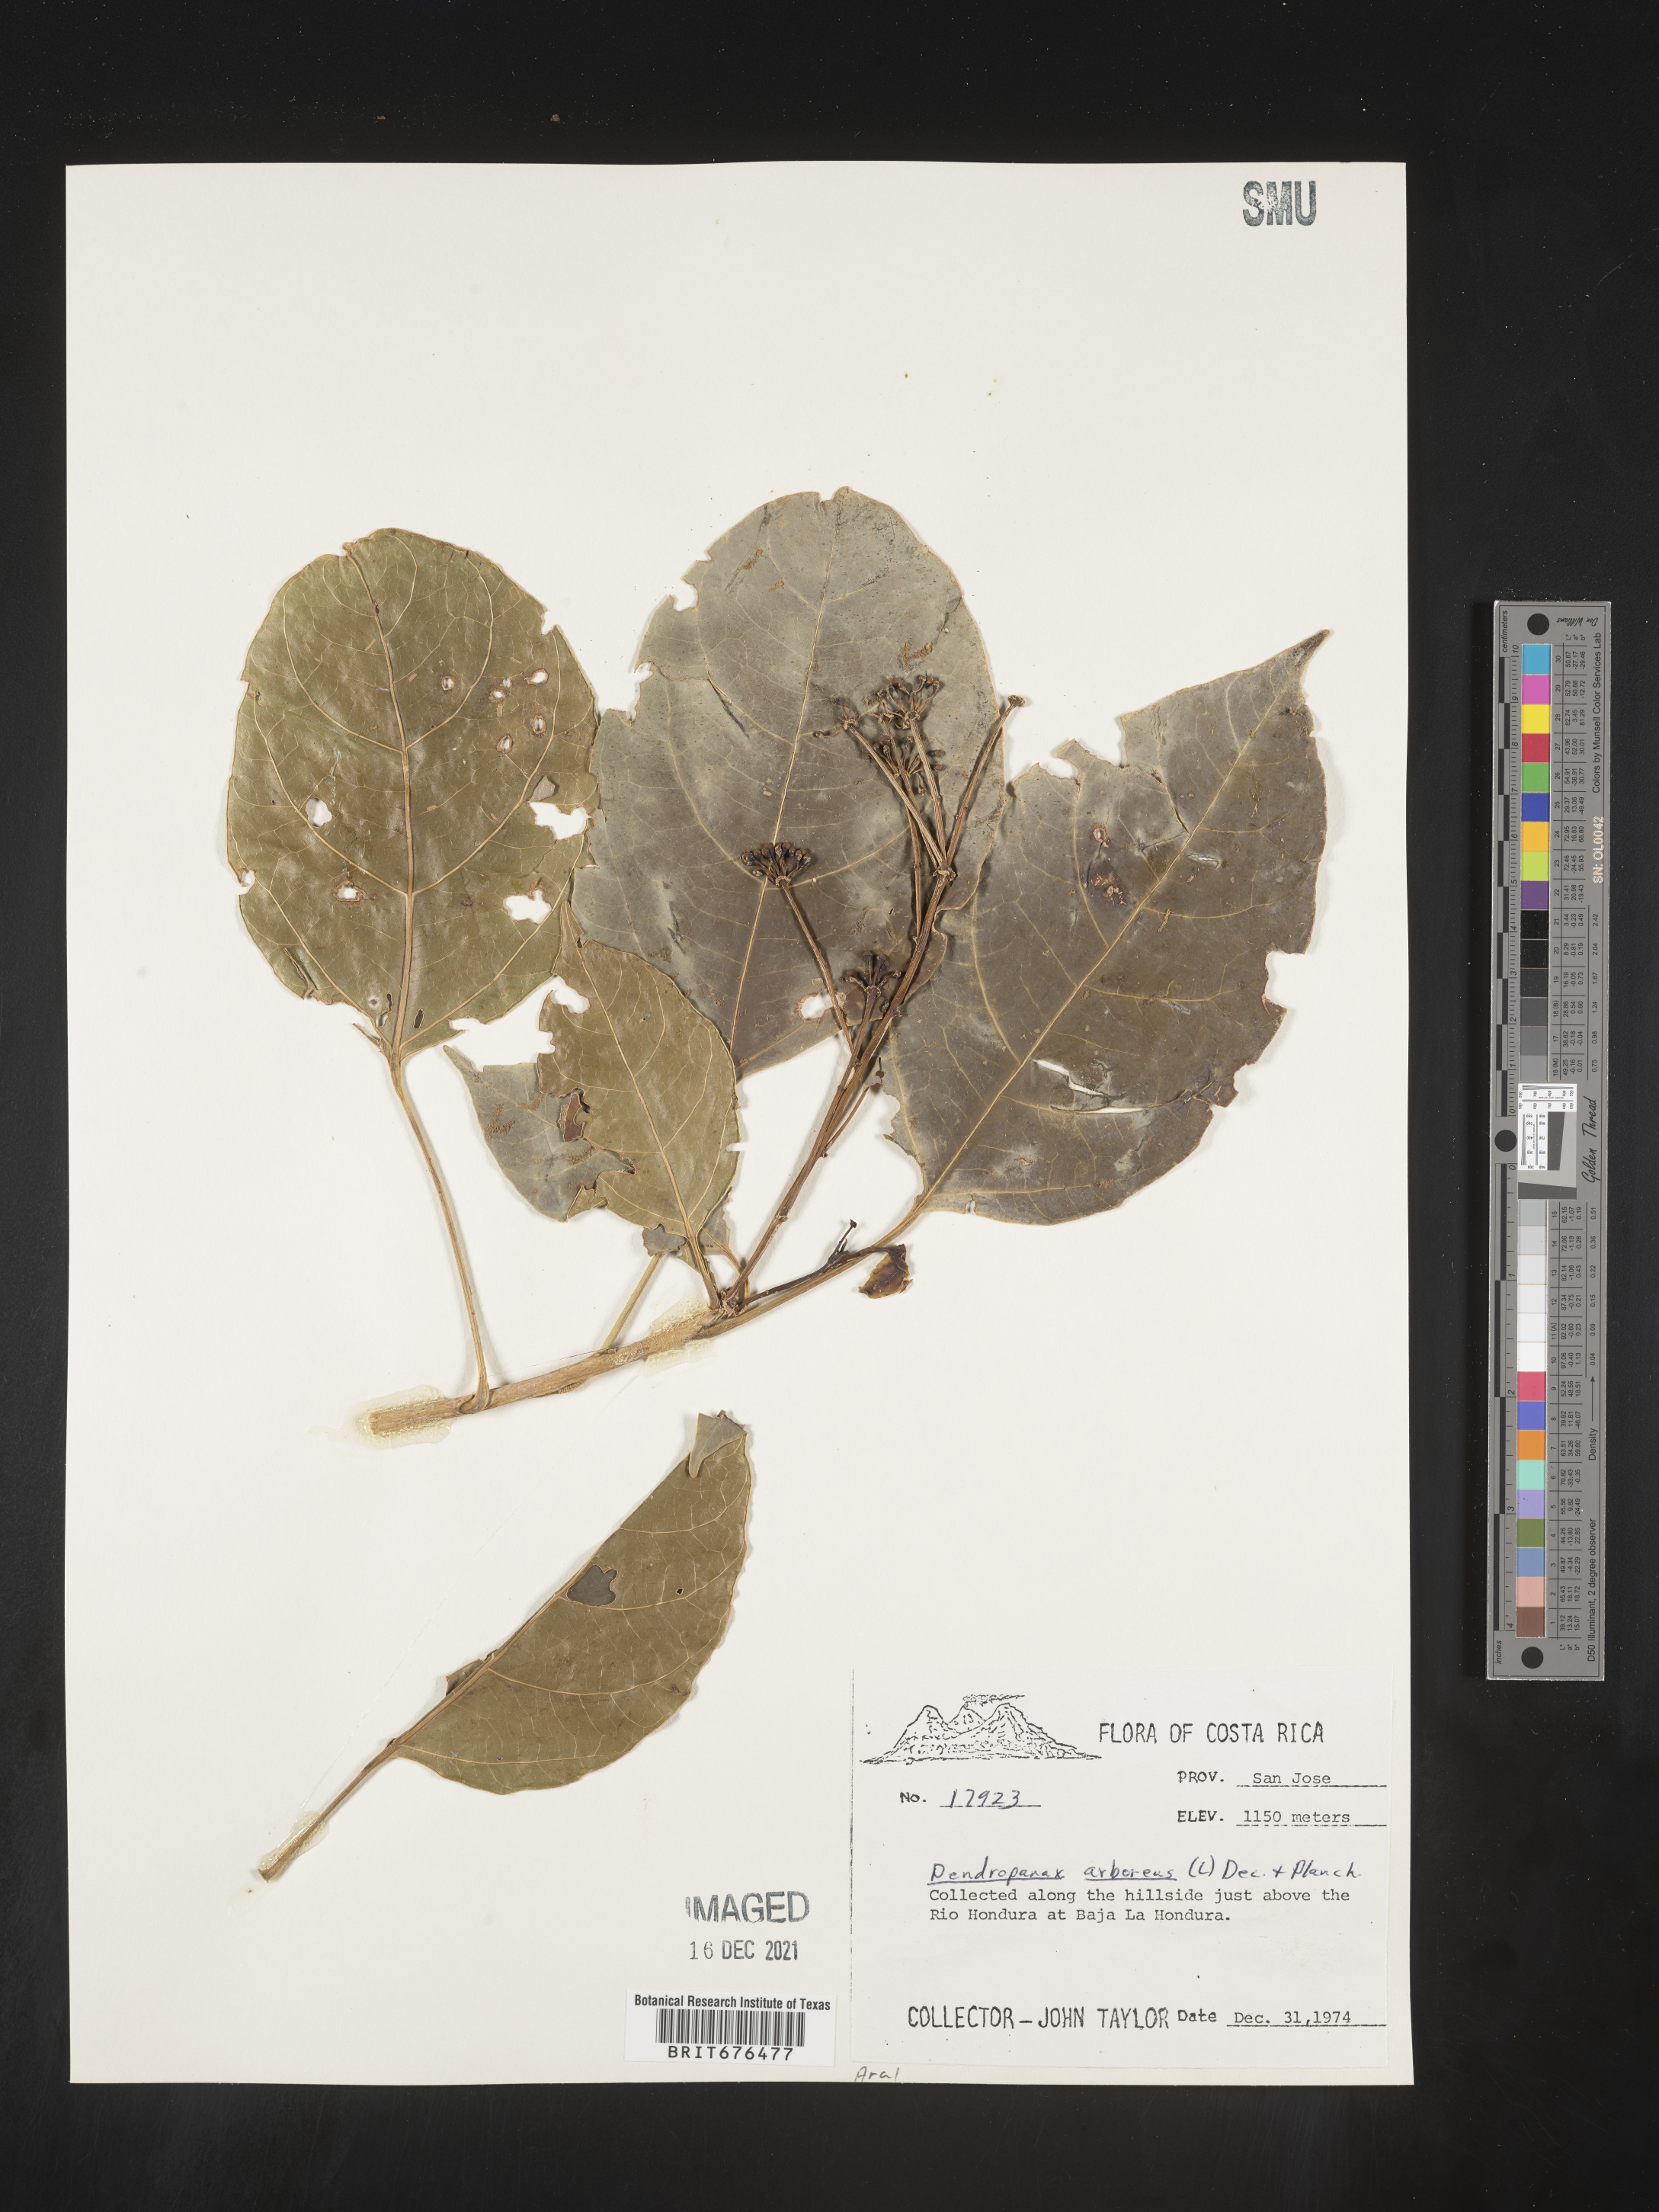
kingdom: Plantae
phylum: Tracheophyta
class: Magnoliopsida
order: Apiales
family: Araliaceae
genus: Dendropanax
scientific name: Dendropanax
